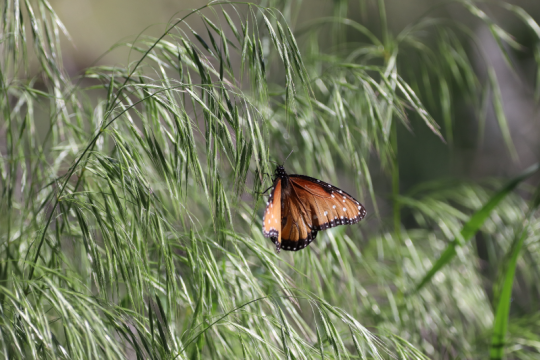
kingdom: Animalia
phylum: Arthropoda
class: Insecta
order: Lepidoptera
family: Nymphalidae
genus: Danaus
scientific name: Danaus gilippus
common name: Queen
